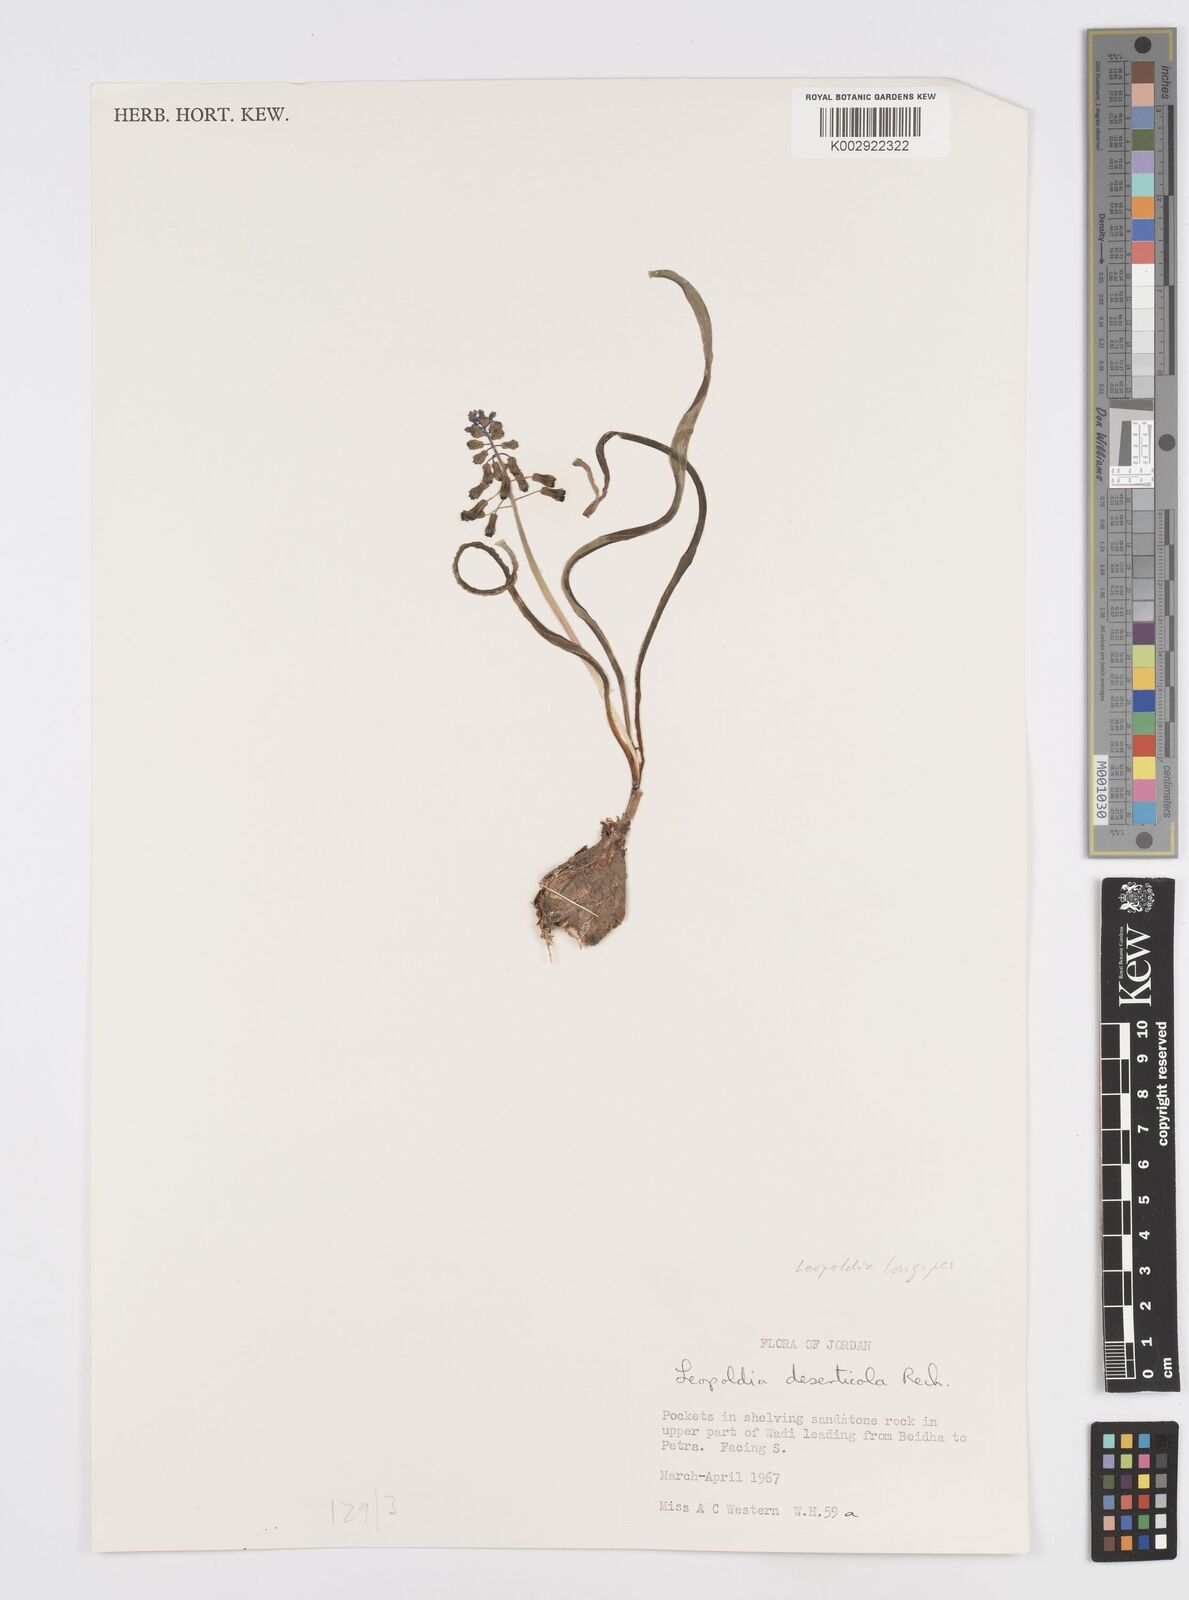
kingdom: Plantae
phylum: Tracheophyta
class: Liliopsida
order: Asparagales
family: Asparagaceae
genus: Muscari
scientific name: Muscari longipes
